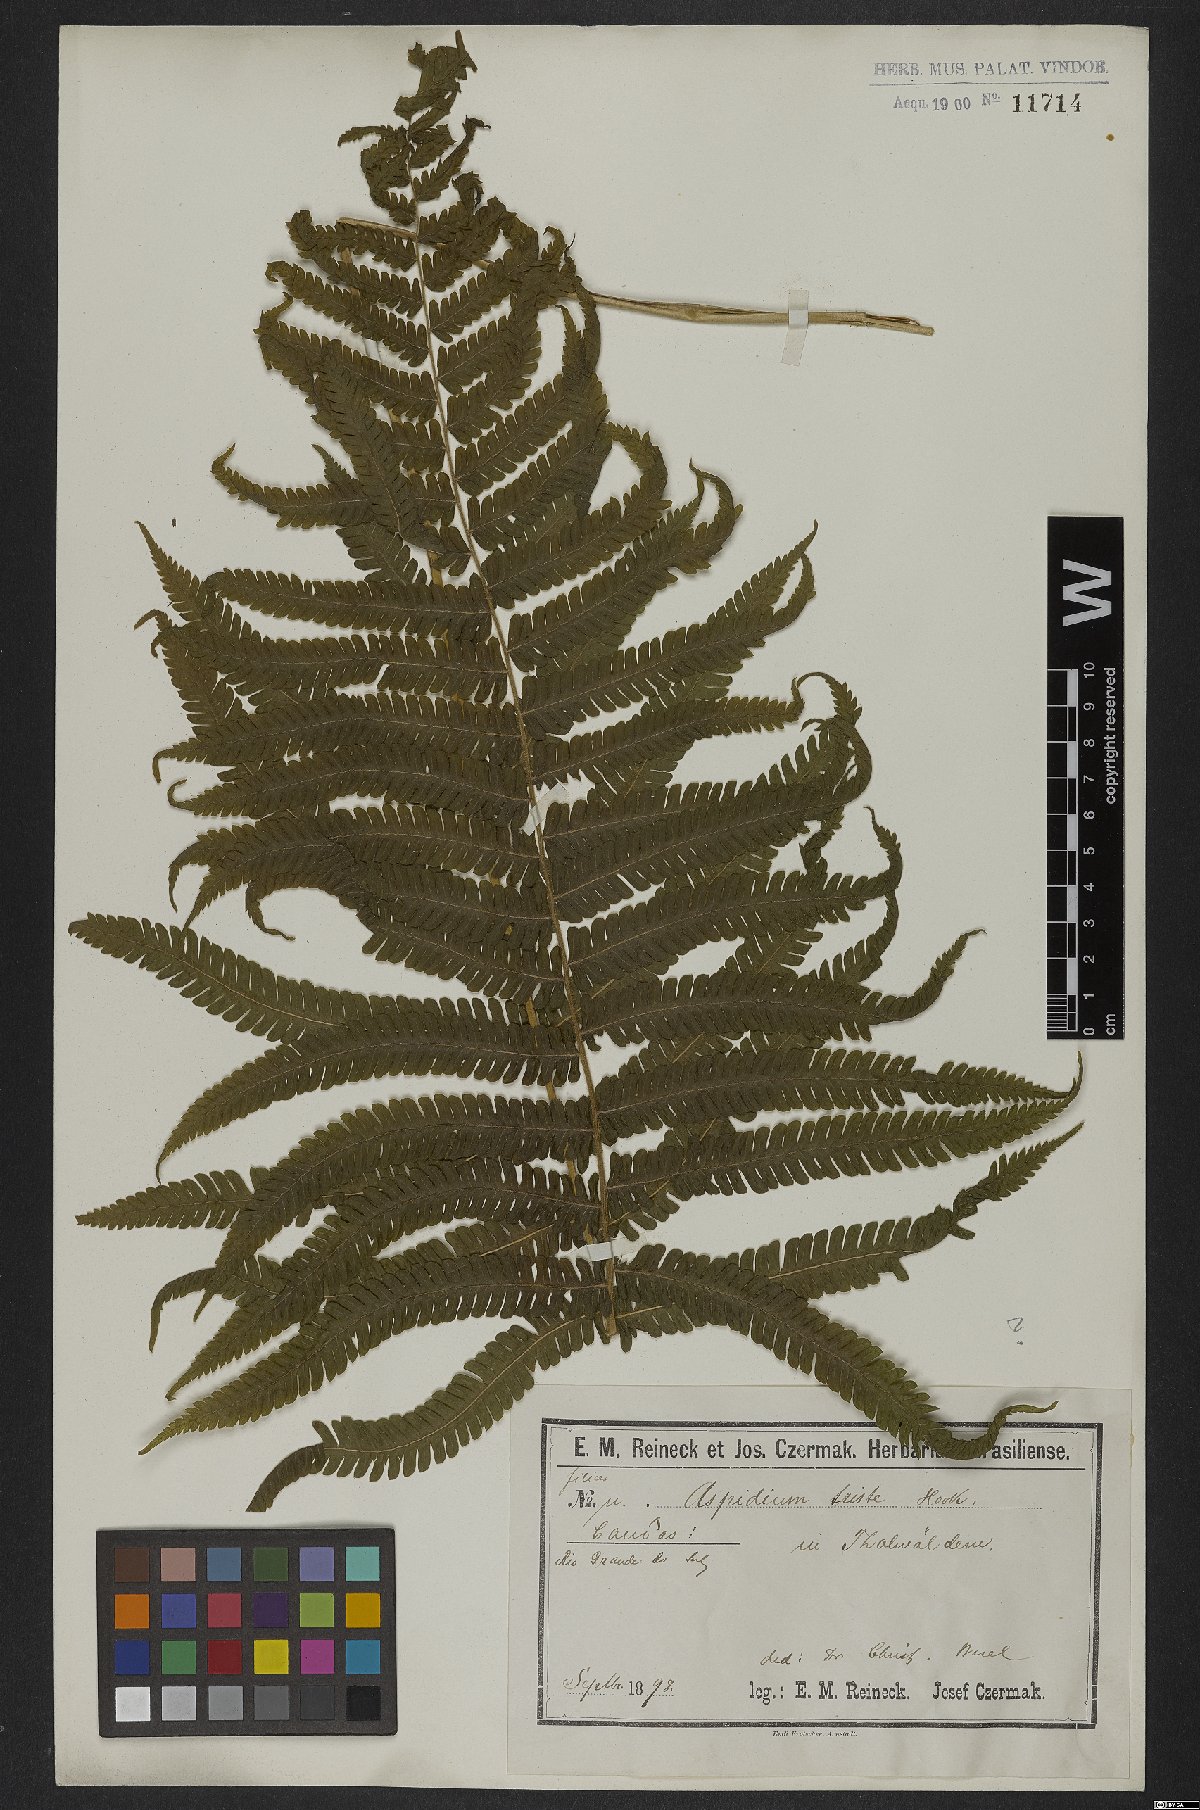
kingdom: Plantae
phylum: Tracheophyta
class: Polypodiopsida
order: Polypodiales
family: Thelypteridaceae
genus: Goniopteris
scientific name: Goniopteris tristis
